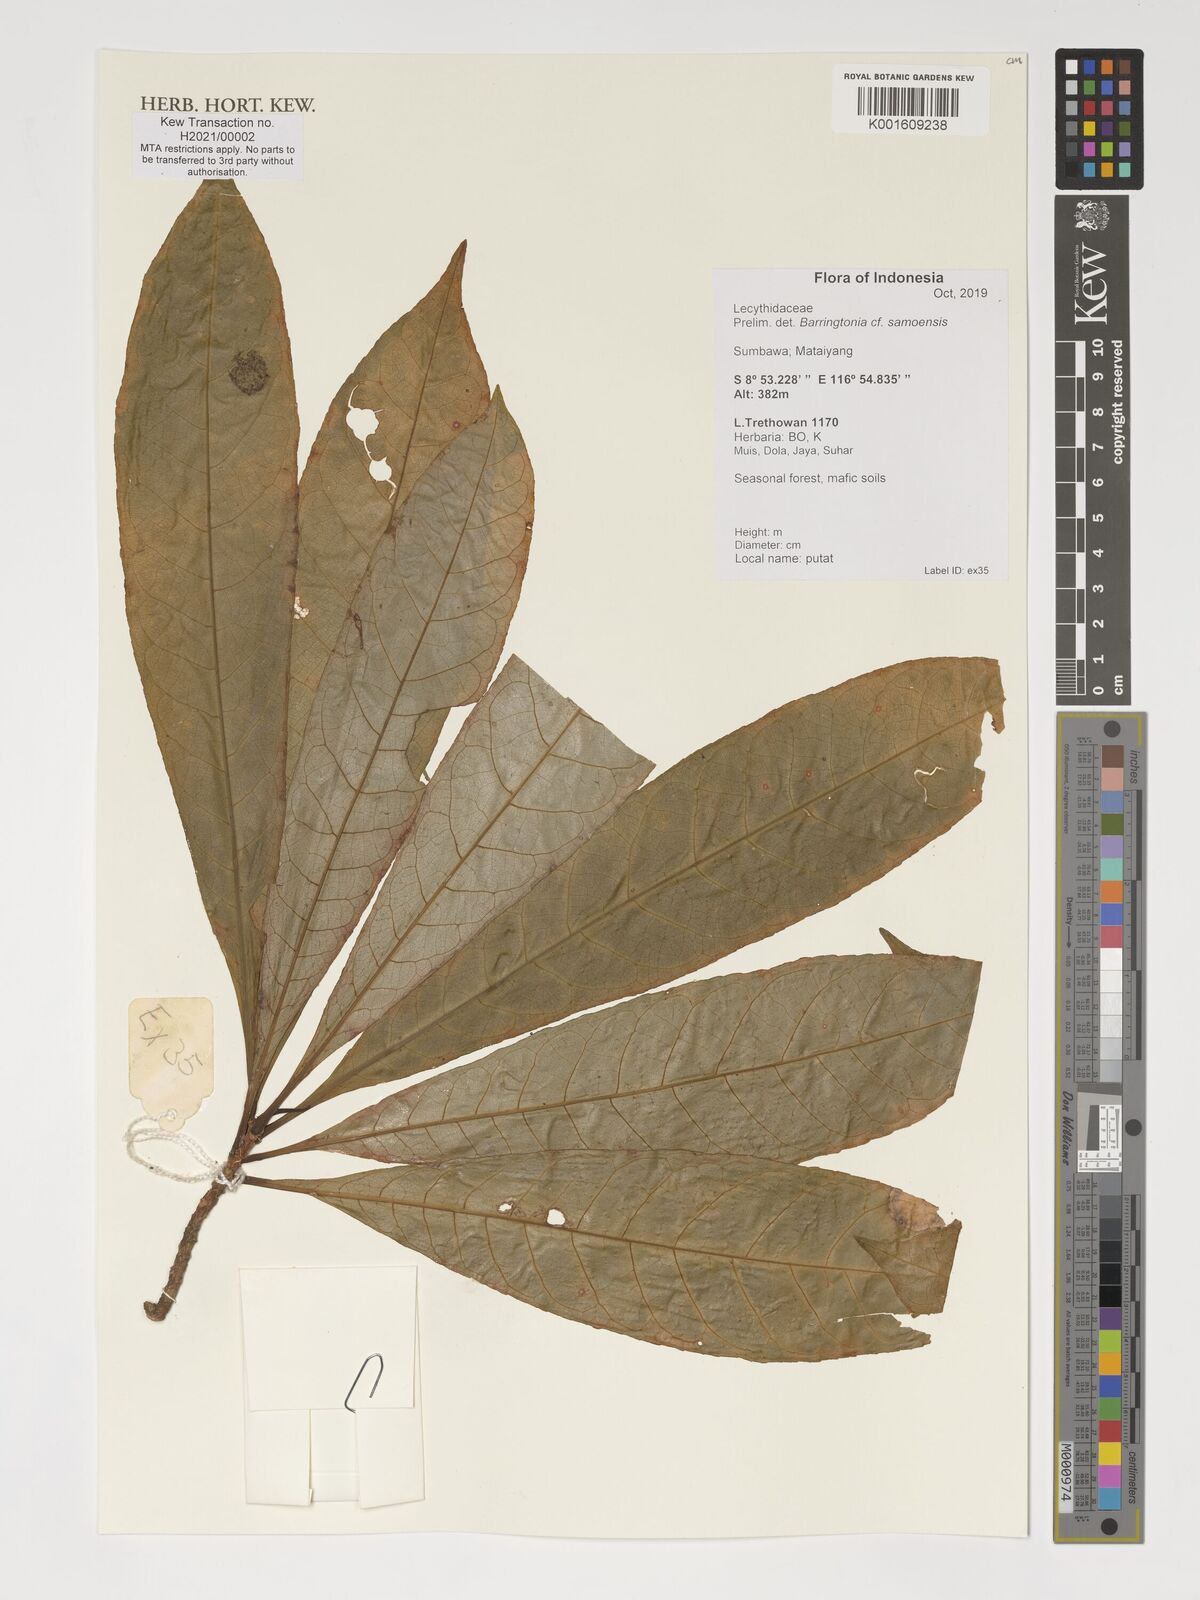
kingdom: Plantae
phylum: Tracheophyta
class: Magnoliopsida
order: Ericales
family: Lecythidaceae
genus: Barringtonia
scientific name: Barringtonia samoensis
